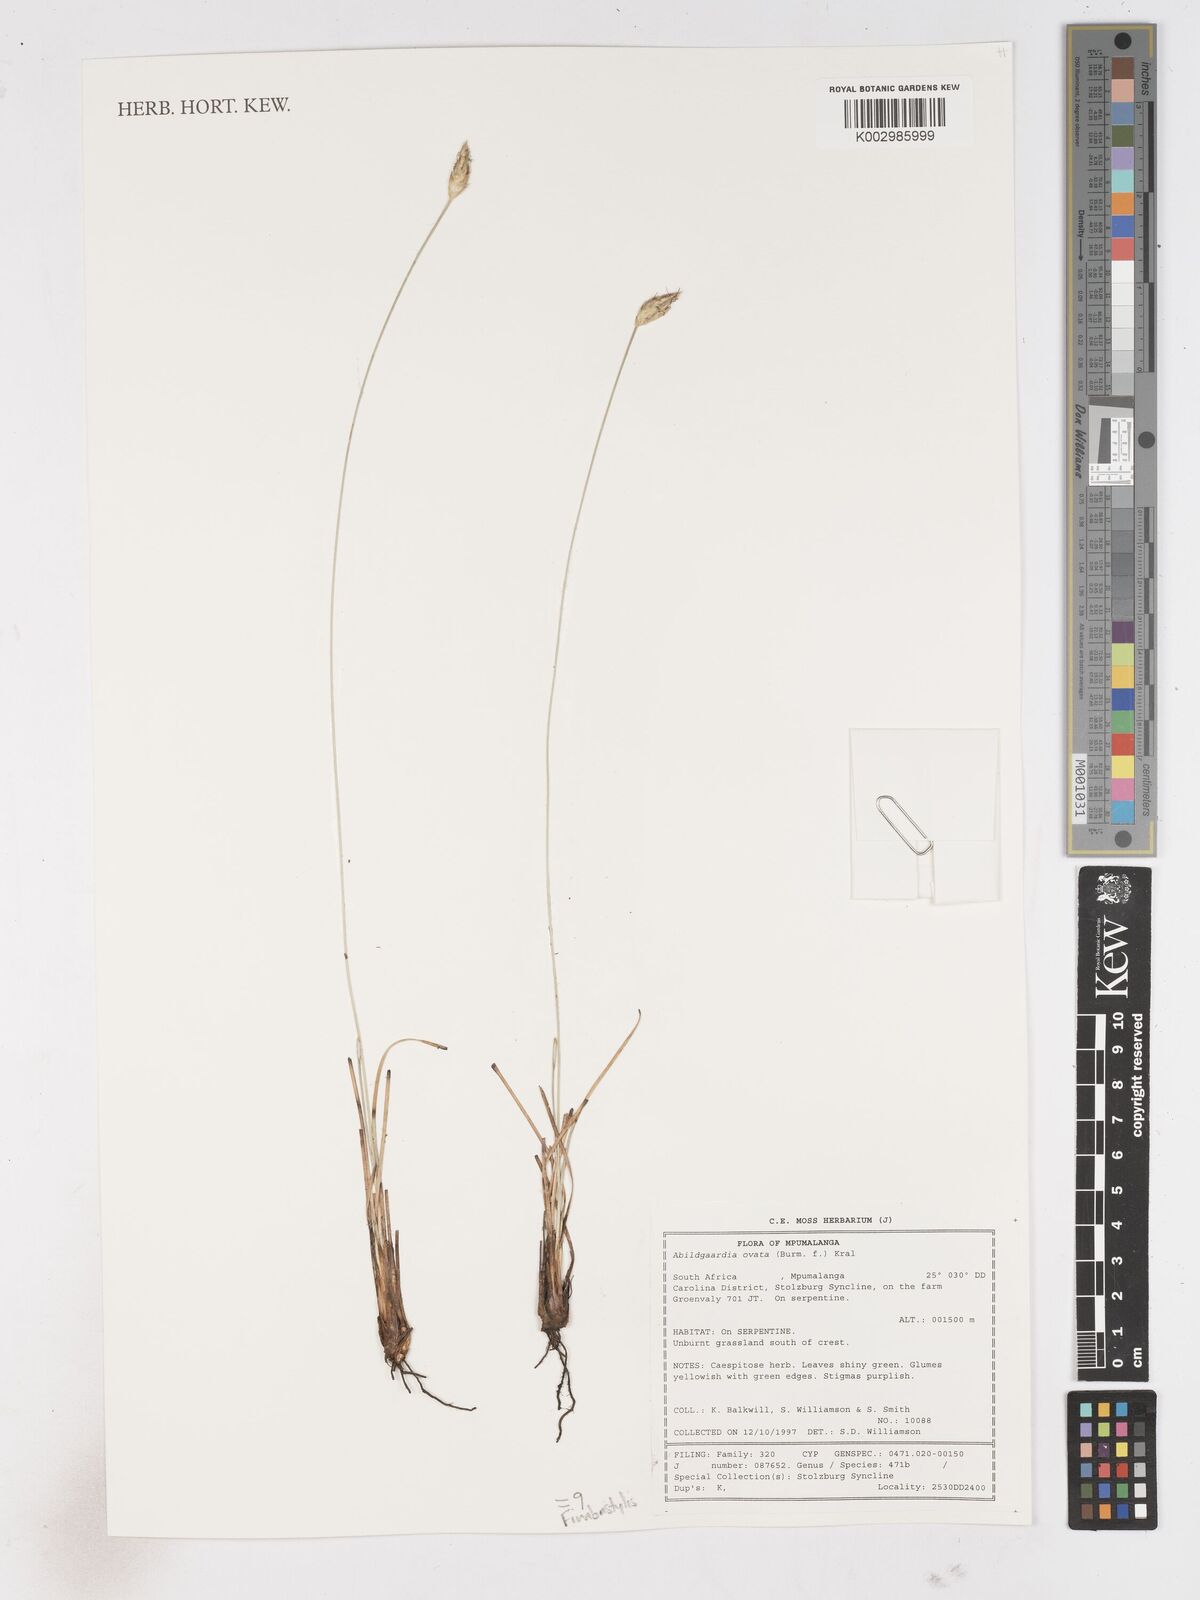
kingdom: Plantae
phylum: Tracheophyta
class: Liliopsida
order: Poales
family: Cyperaceae
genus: Abildgaardia
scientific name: Abildgaardia ovata
